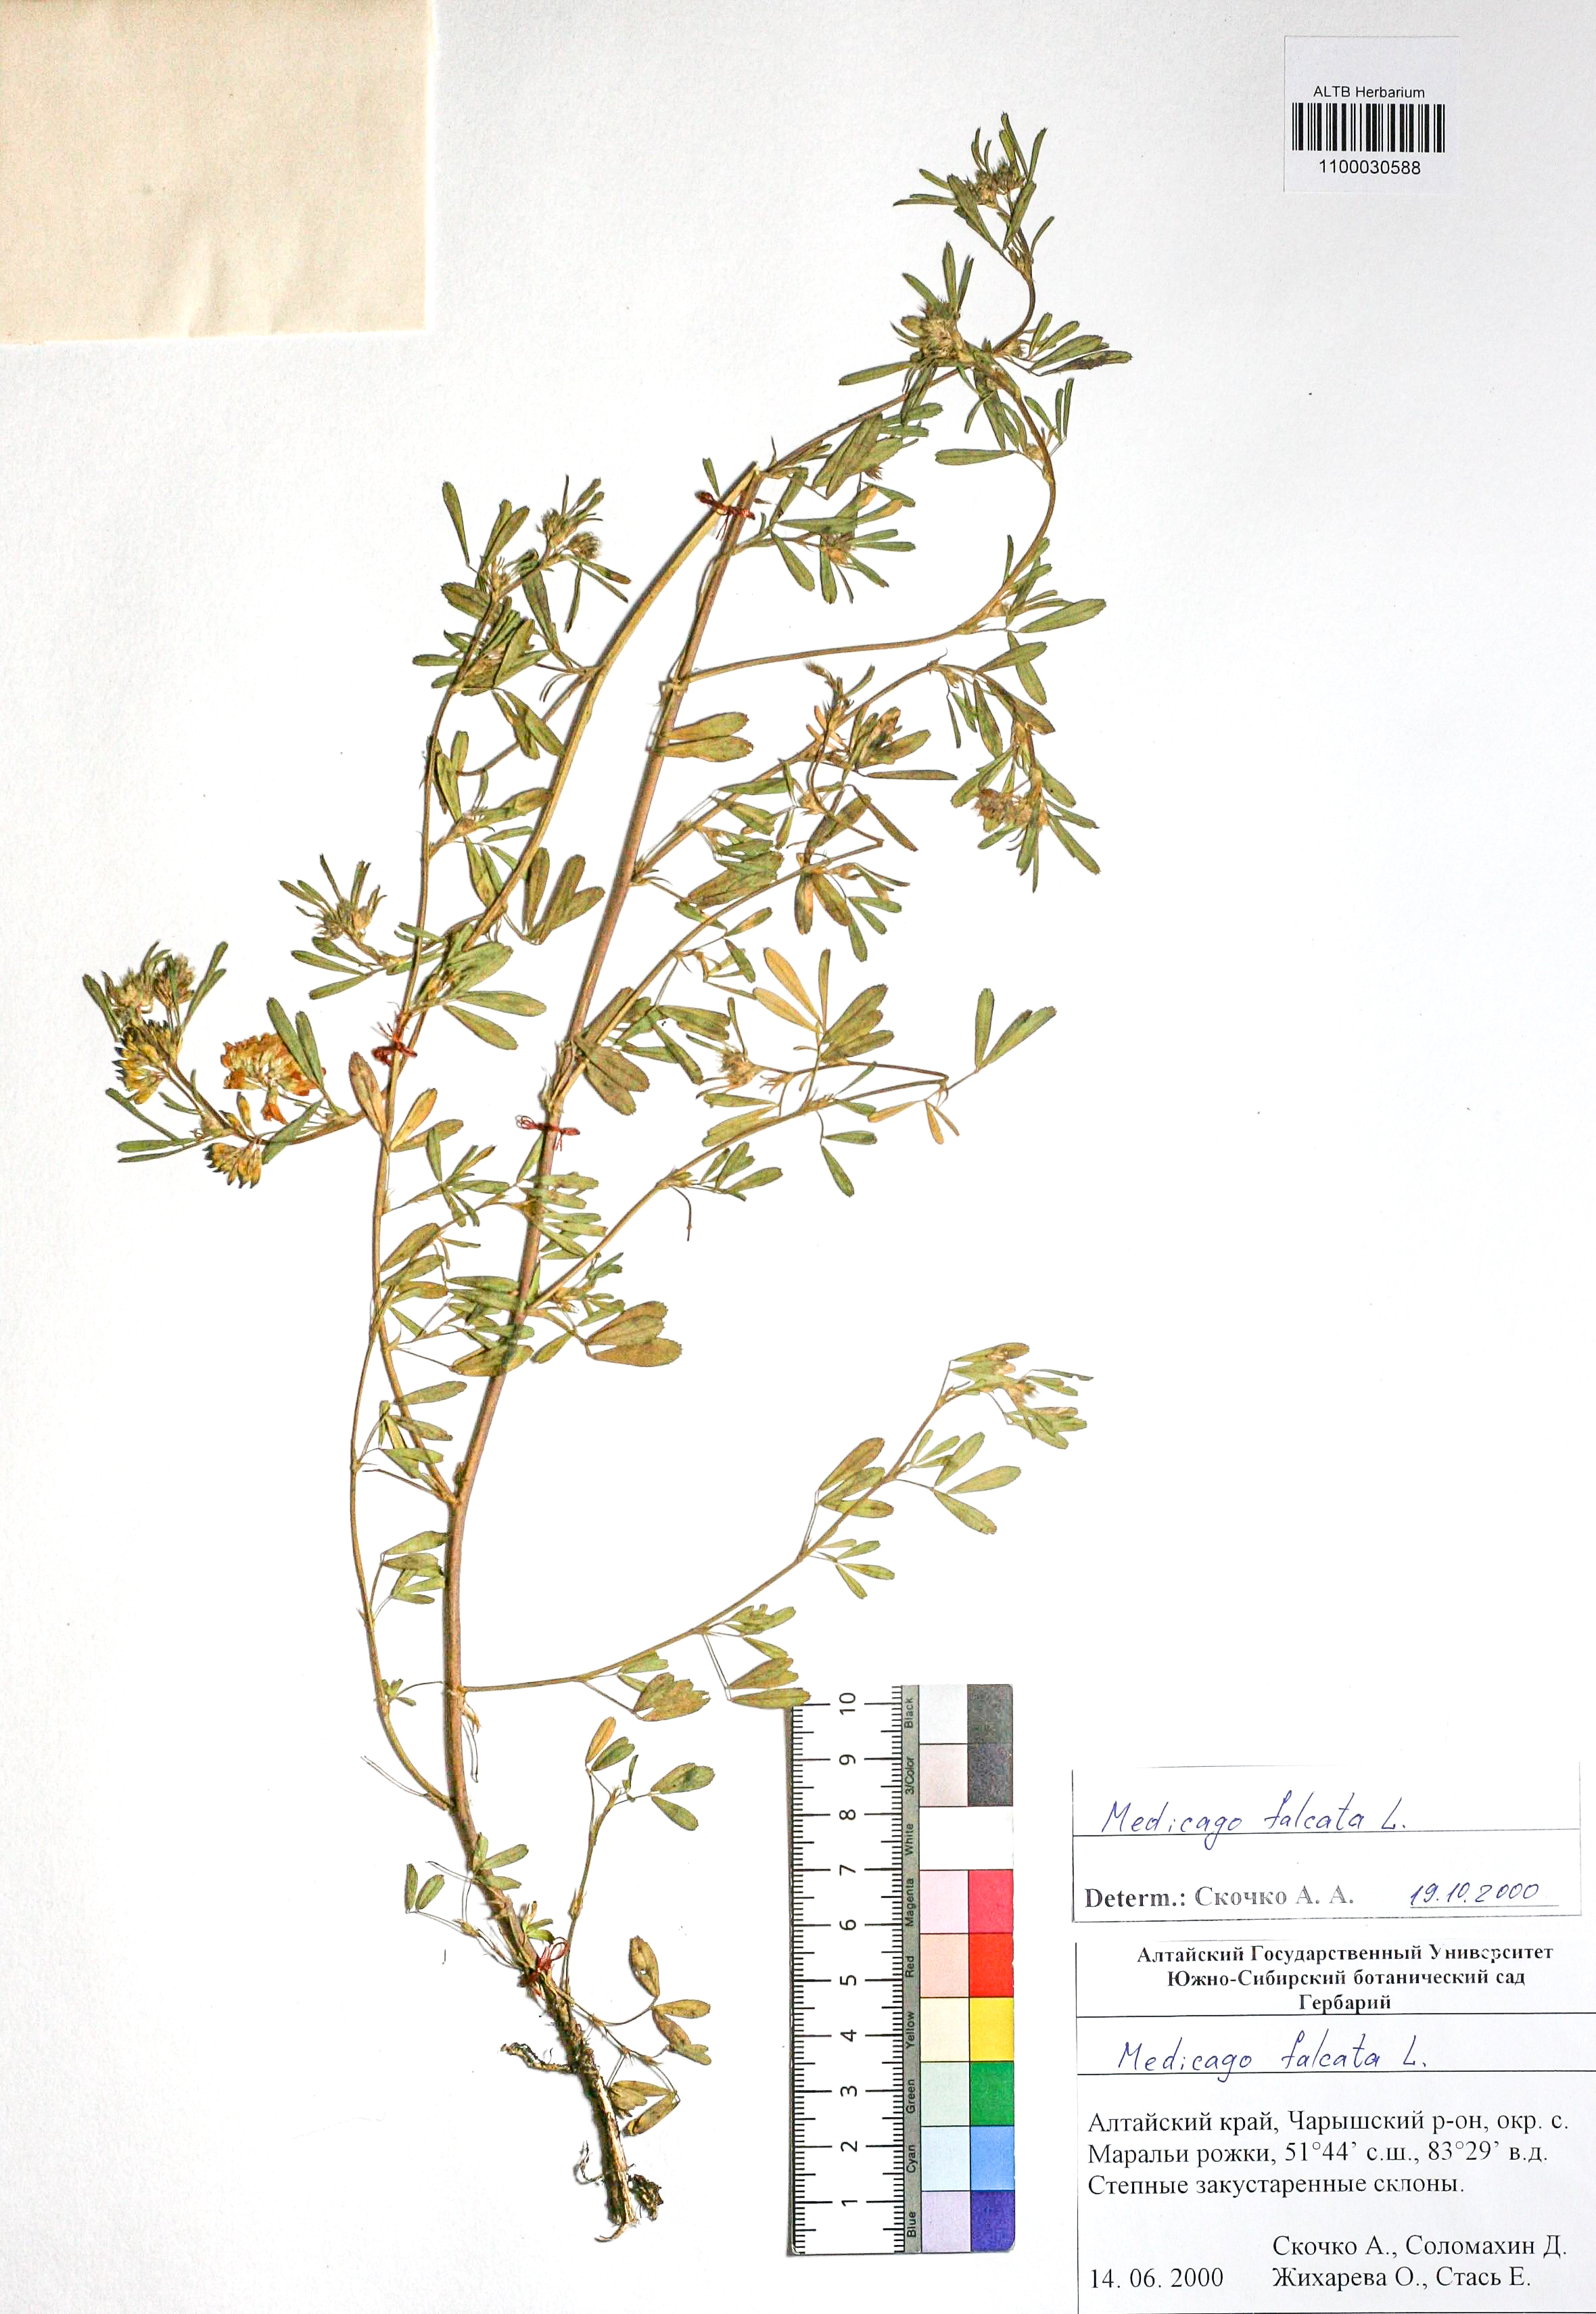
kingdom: Plantae
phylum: Tracheophyta
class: Magnoliopsida
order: Fabales
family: Fabaceae
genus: Medicago
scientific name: Medicago falcata
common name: Sickle medick
